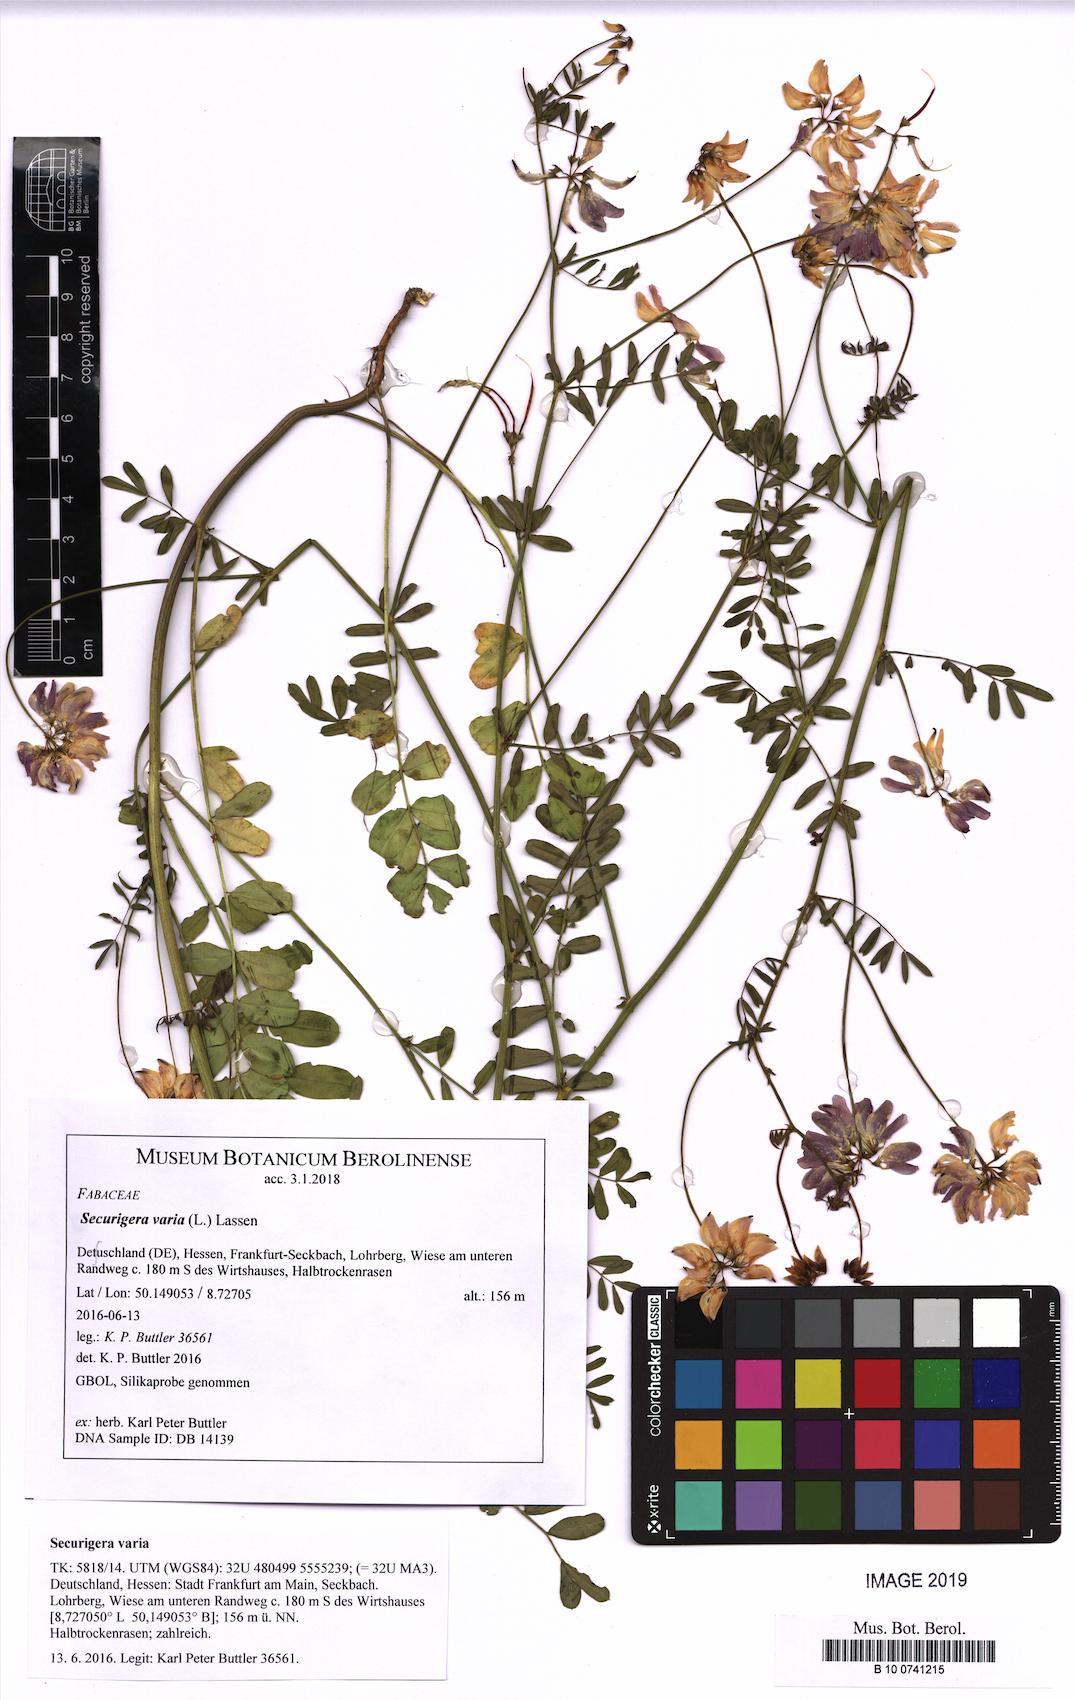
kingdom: Plantae
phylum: Tracheophyta
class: Magnoliopsida
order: Fabales
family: Fabaceae
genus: Coronilla
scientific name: Coronilla varia
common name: Crownvetch
